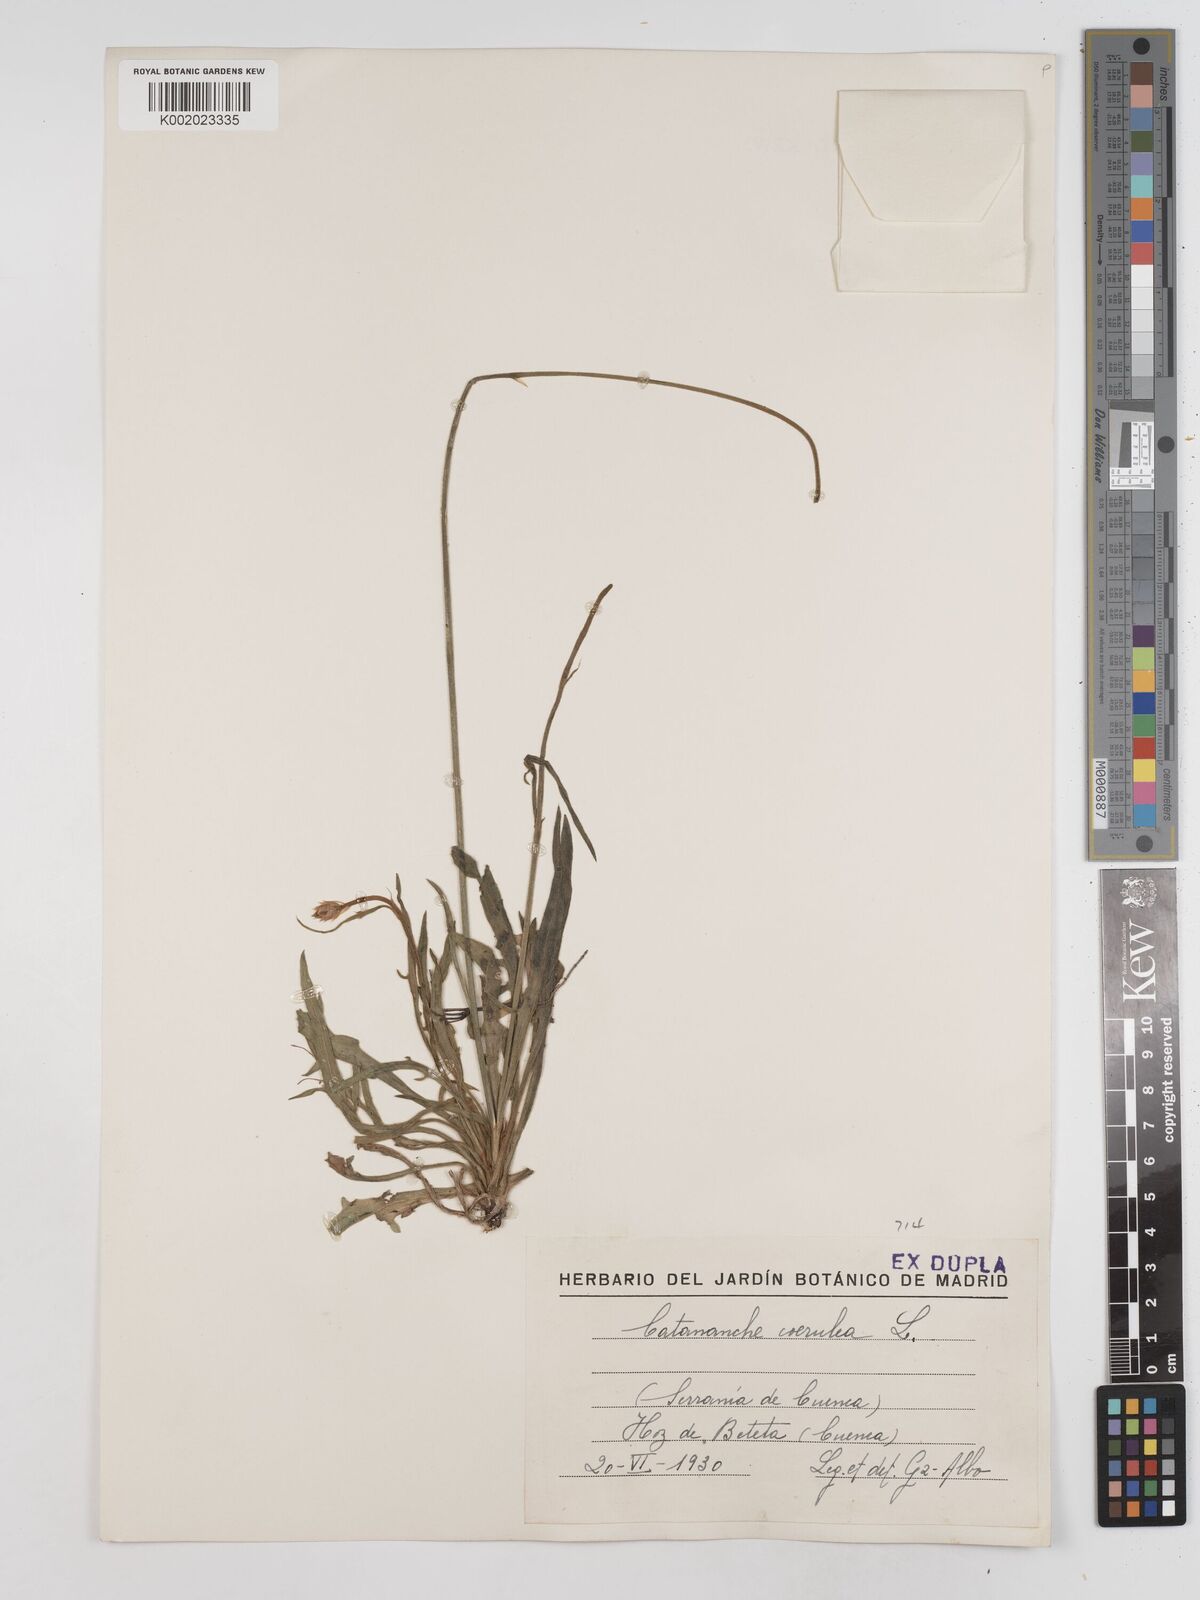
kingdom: Plantae
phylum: Tracheophyta
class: Magnoliopsida
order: Asterales
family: Asteraceae
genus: Catananche
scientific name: Catananche caerulea
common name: Blue cupidone
